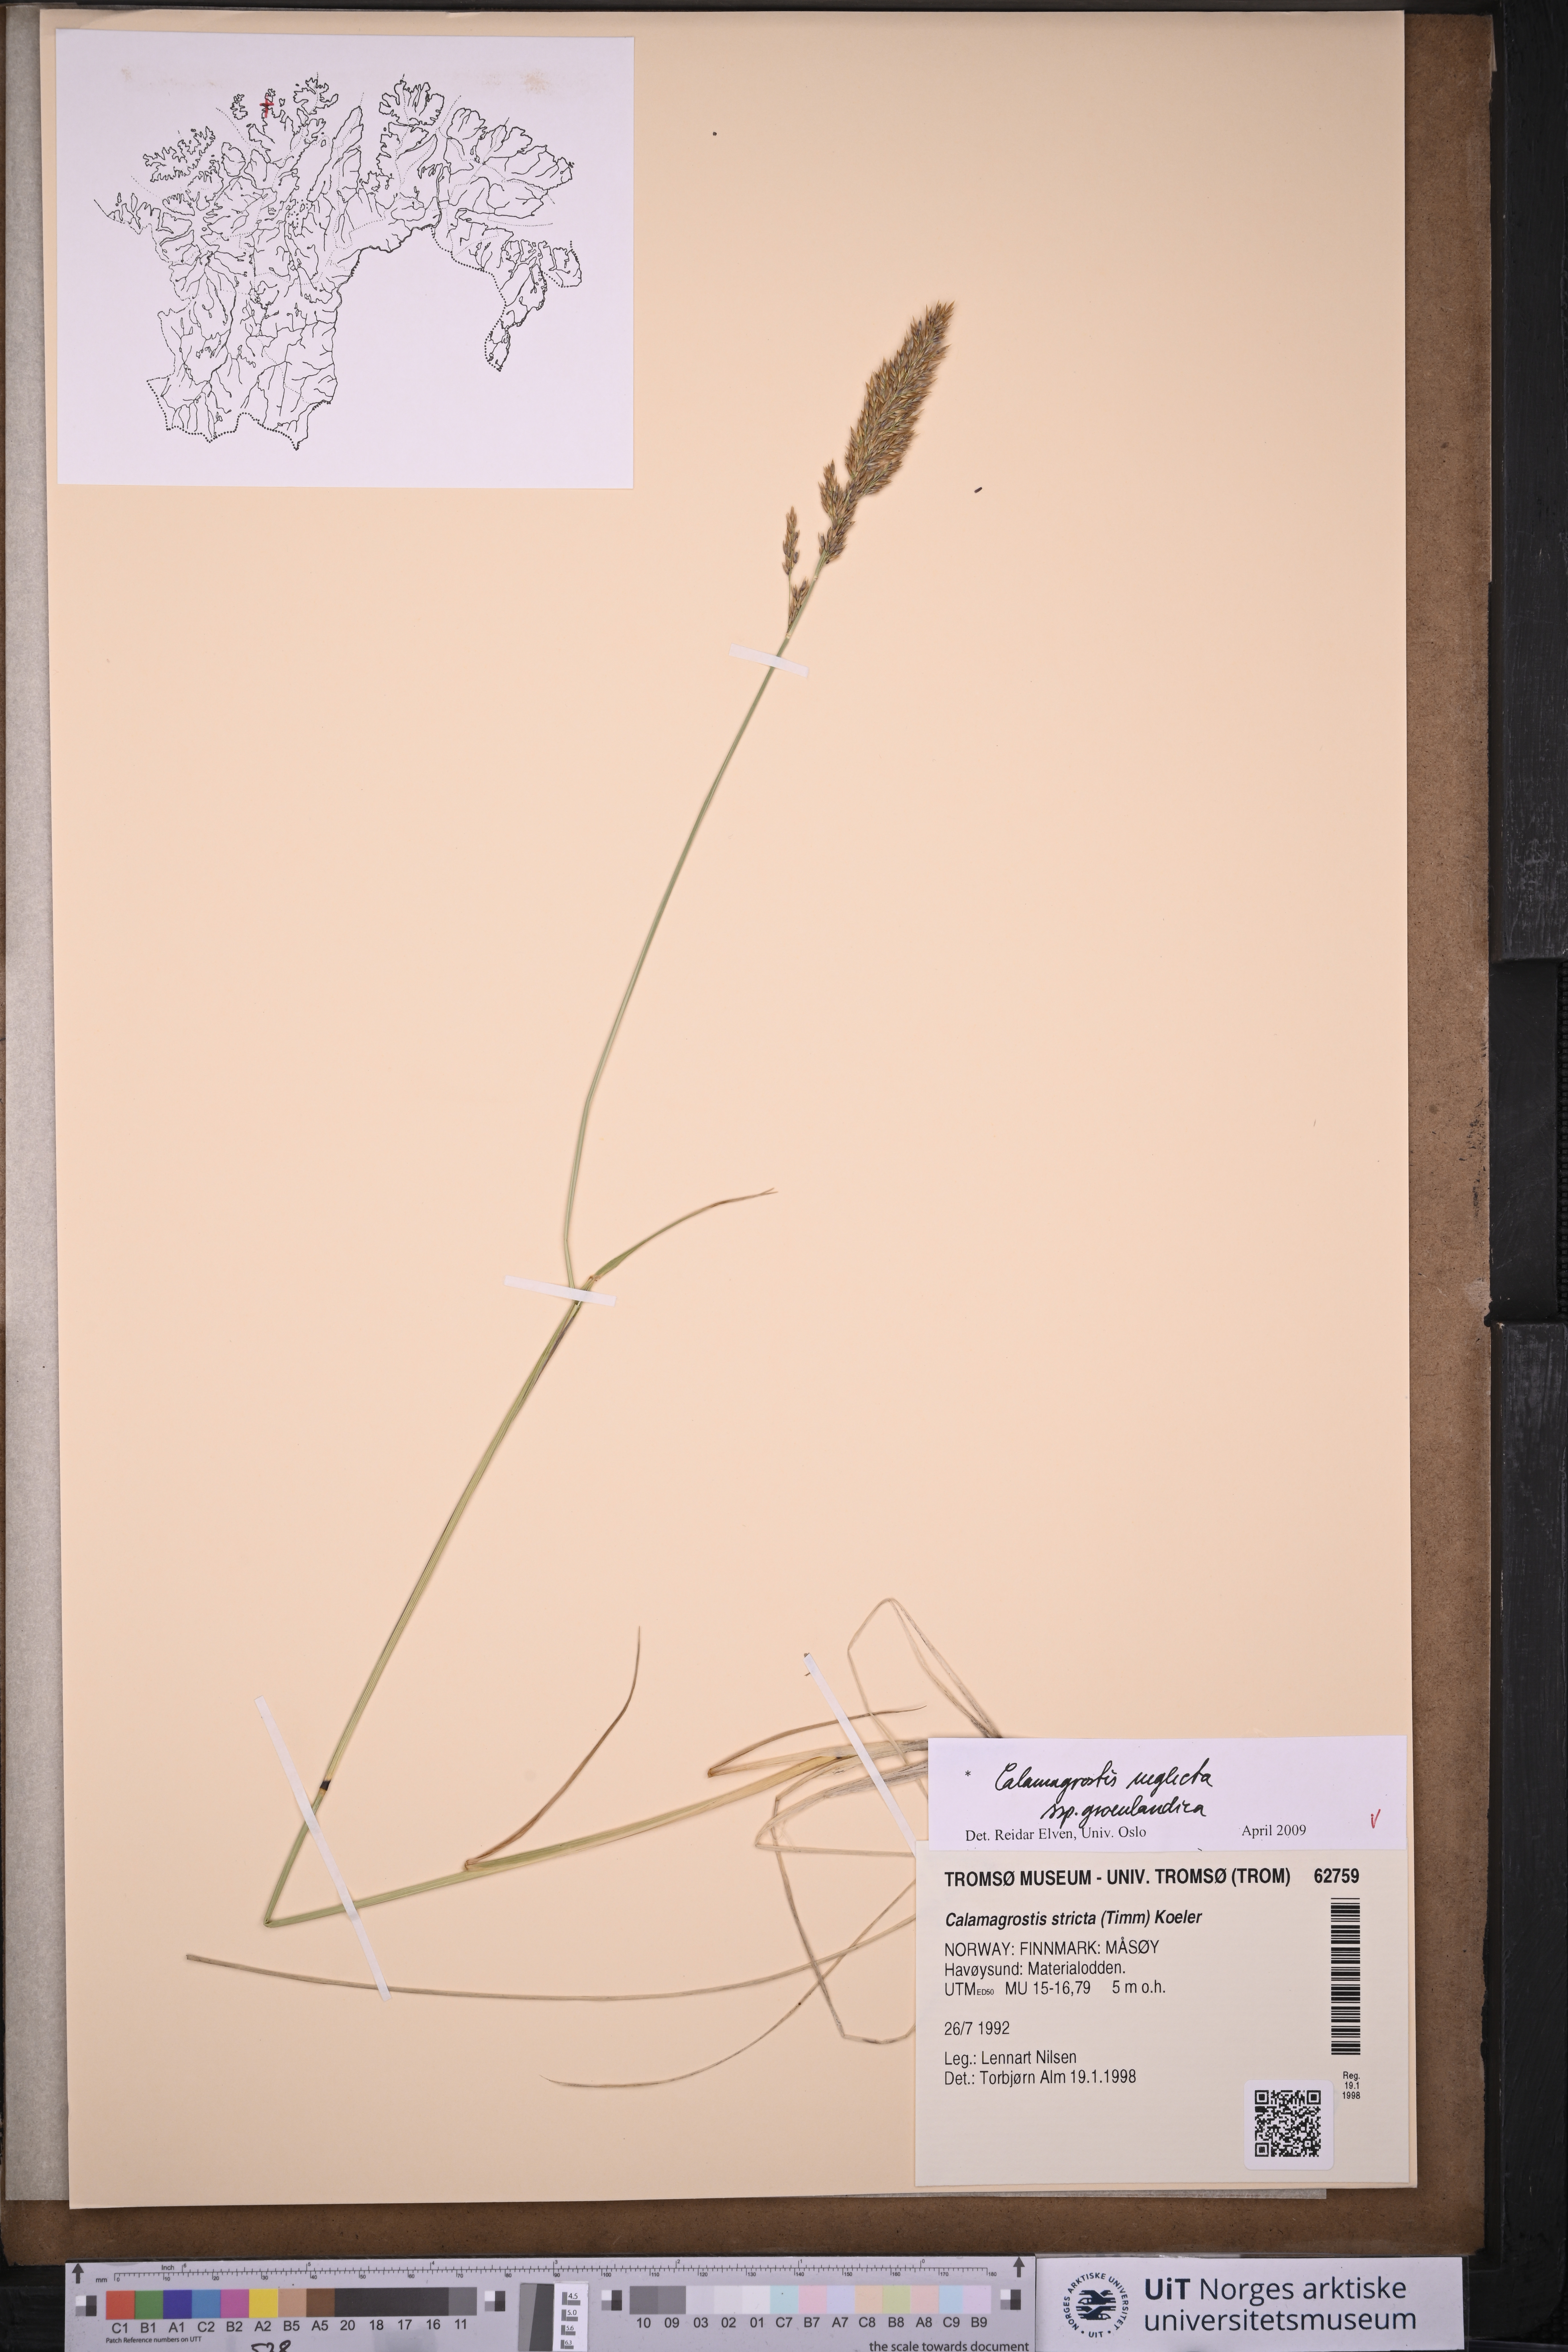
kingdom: Plantae
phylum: Tracheophyta
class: Liliopsida
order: Poales
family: Poaceae
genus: Calamagrostis
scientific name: Calamagrostis stricta
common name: Narrow small-reed
